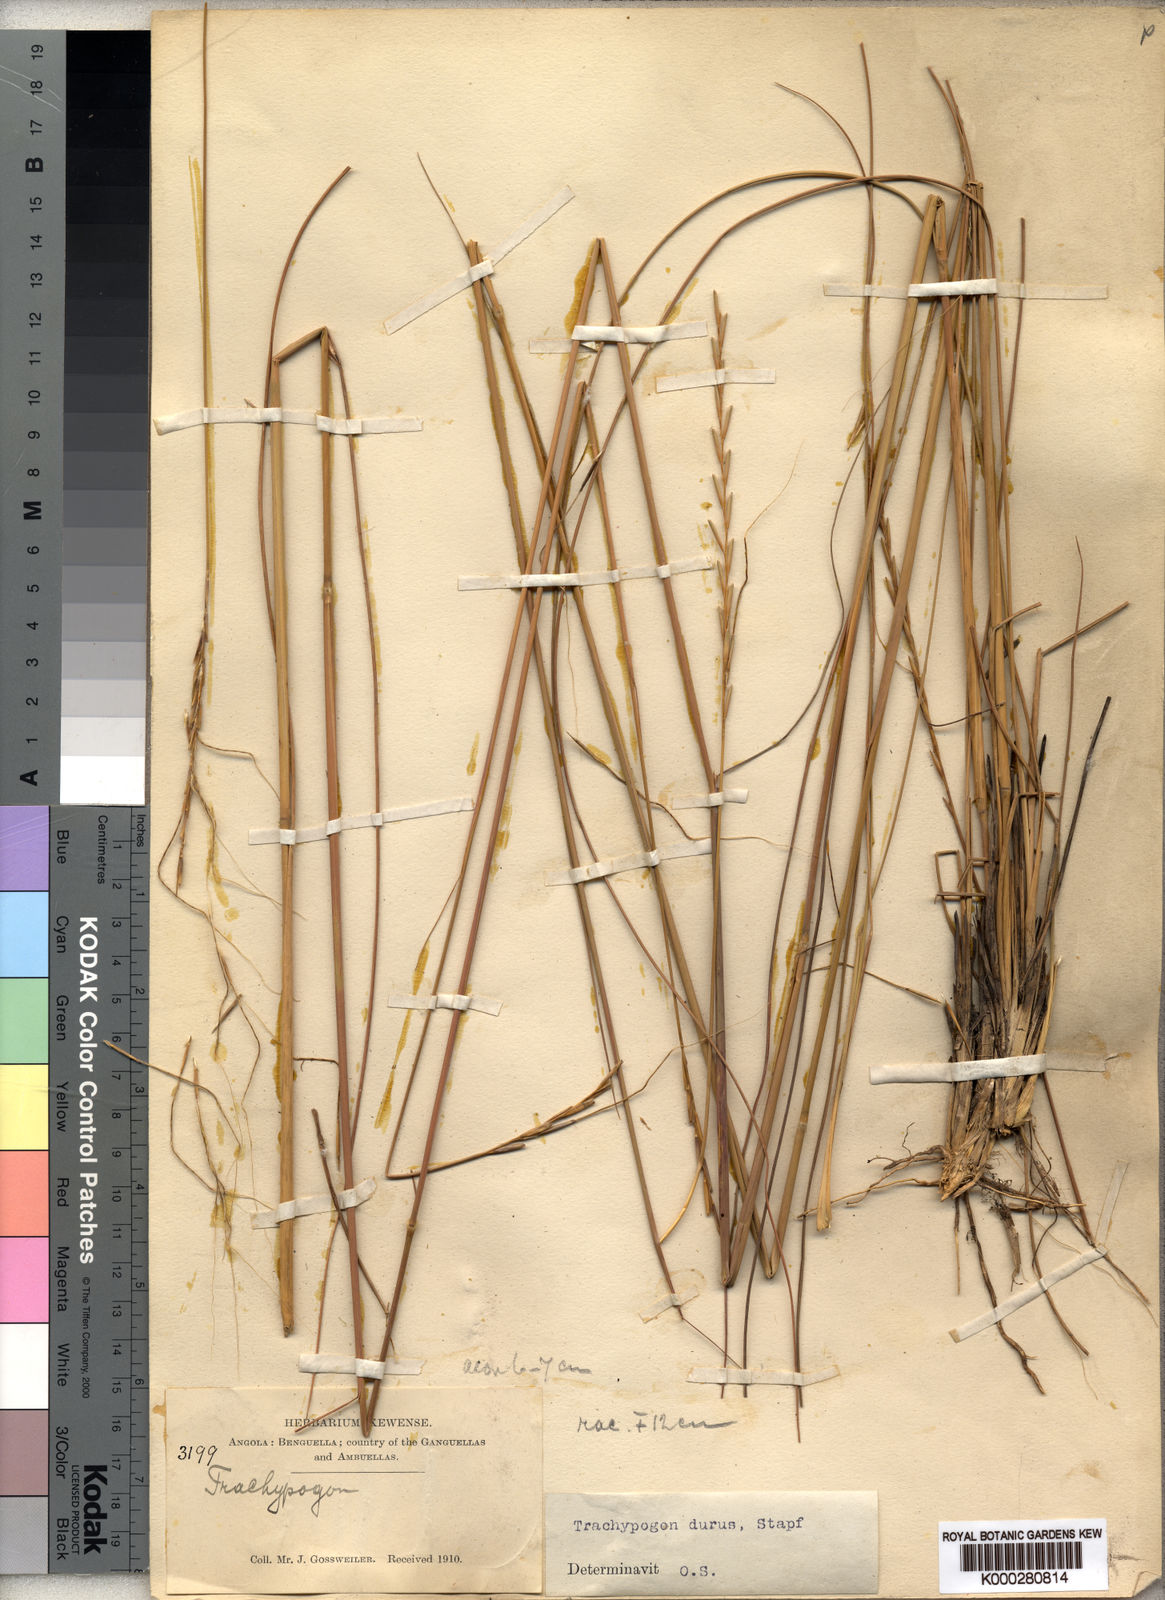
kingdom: Plantae
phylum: Tracheophyta
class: Liliopsida
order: Poales
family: Poaceae
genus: Trachypogon
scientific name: Trachypogon spicatus
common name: Crinkle-awn
